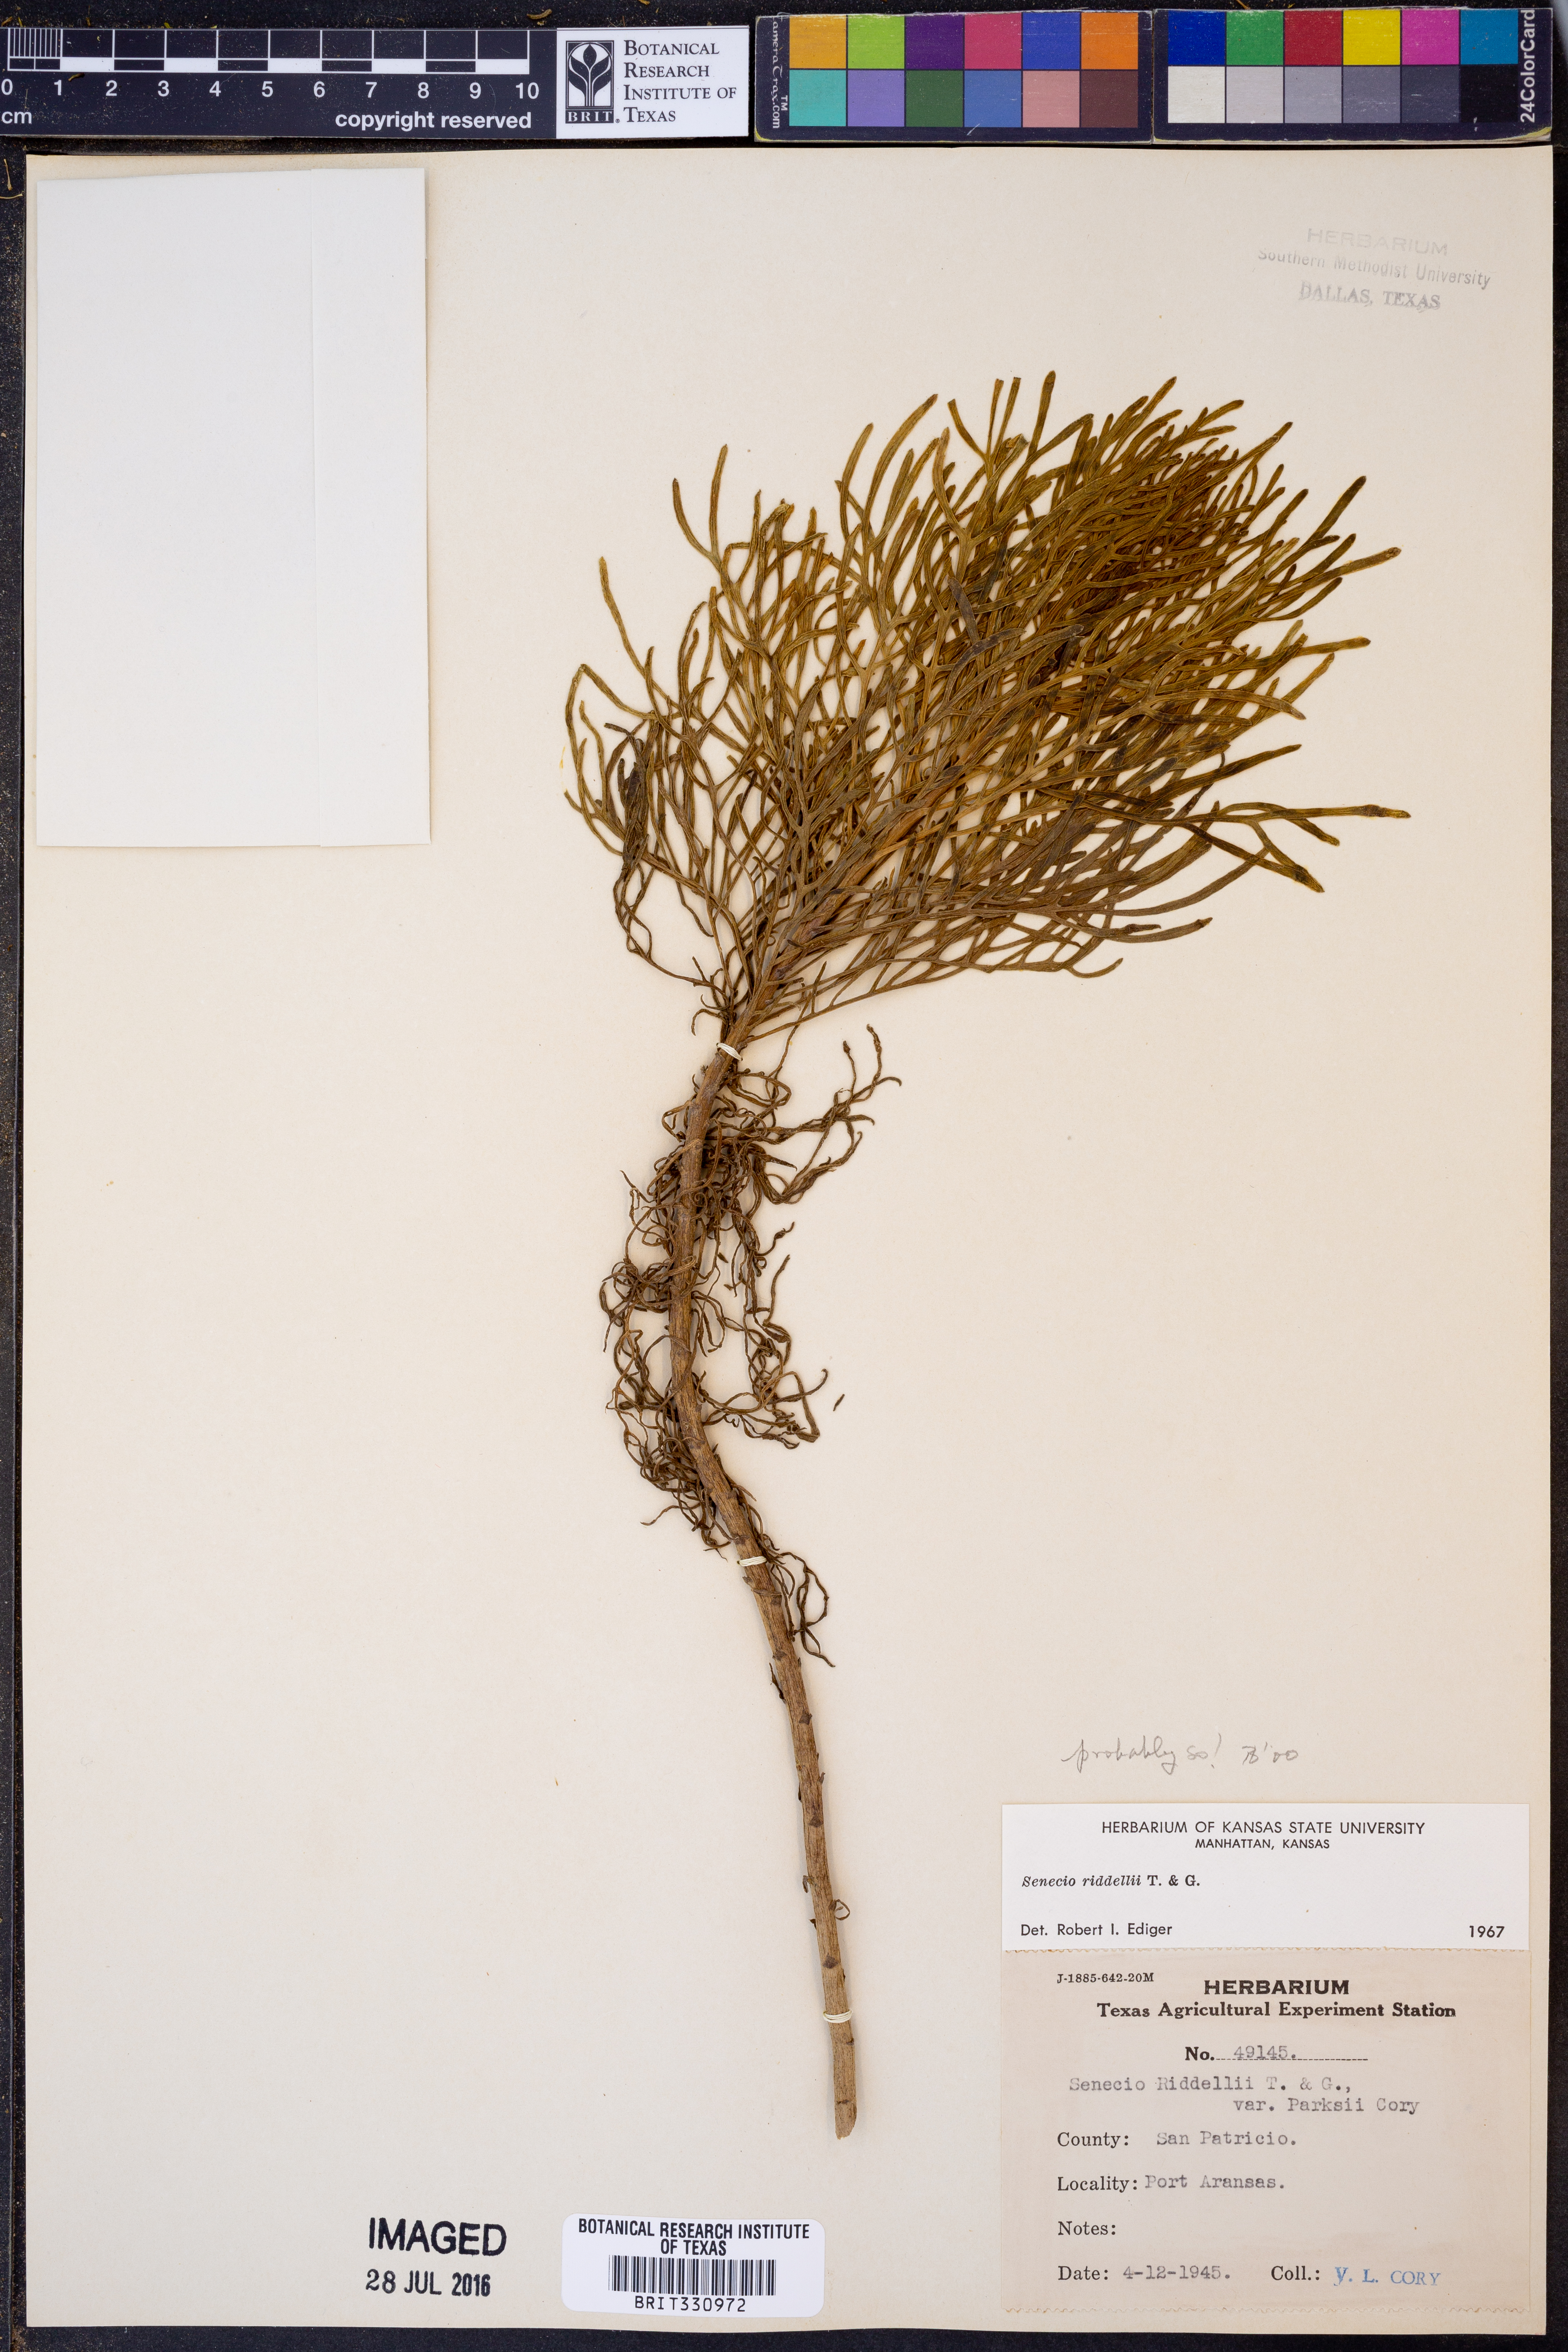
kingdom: Plantae
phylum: Tracheophyta
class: Magnoliopsida
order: Asterales
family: Asteraceae
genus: Senecio
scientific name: Senecio riddellii
